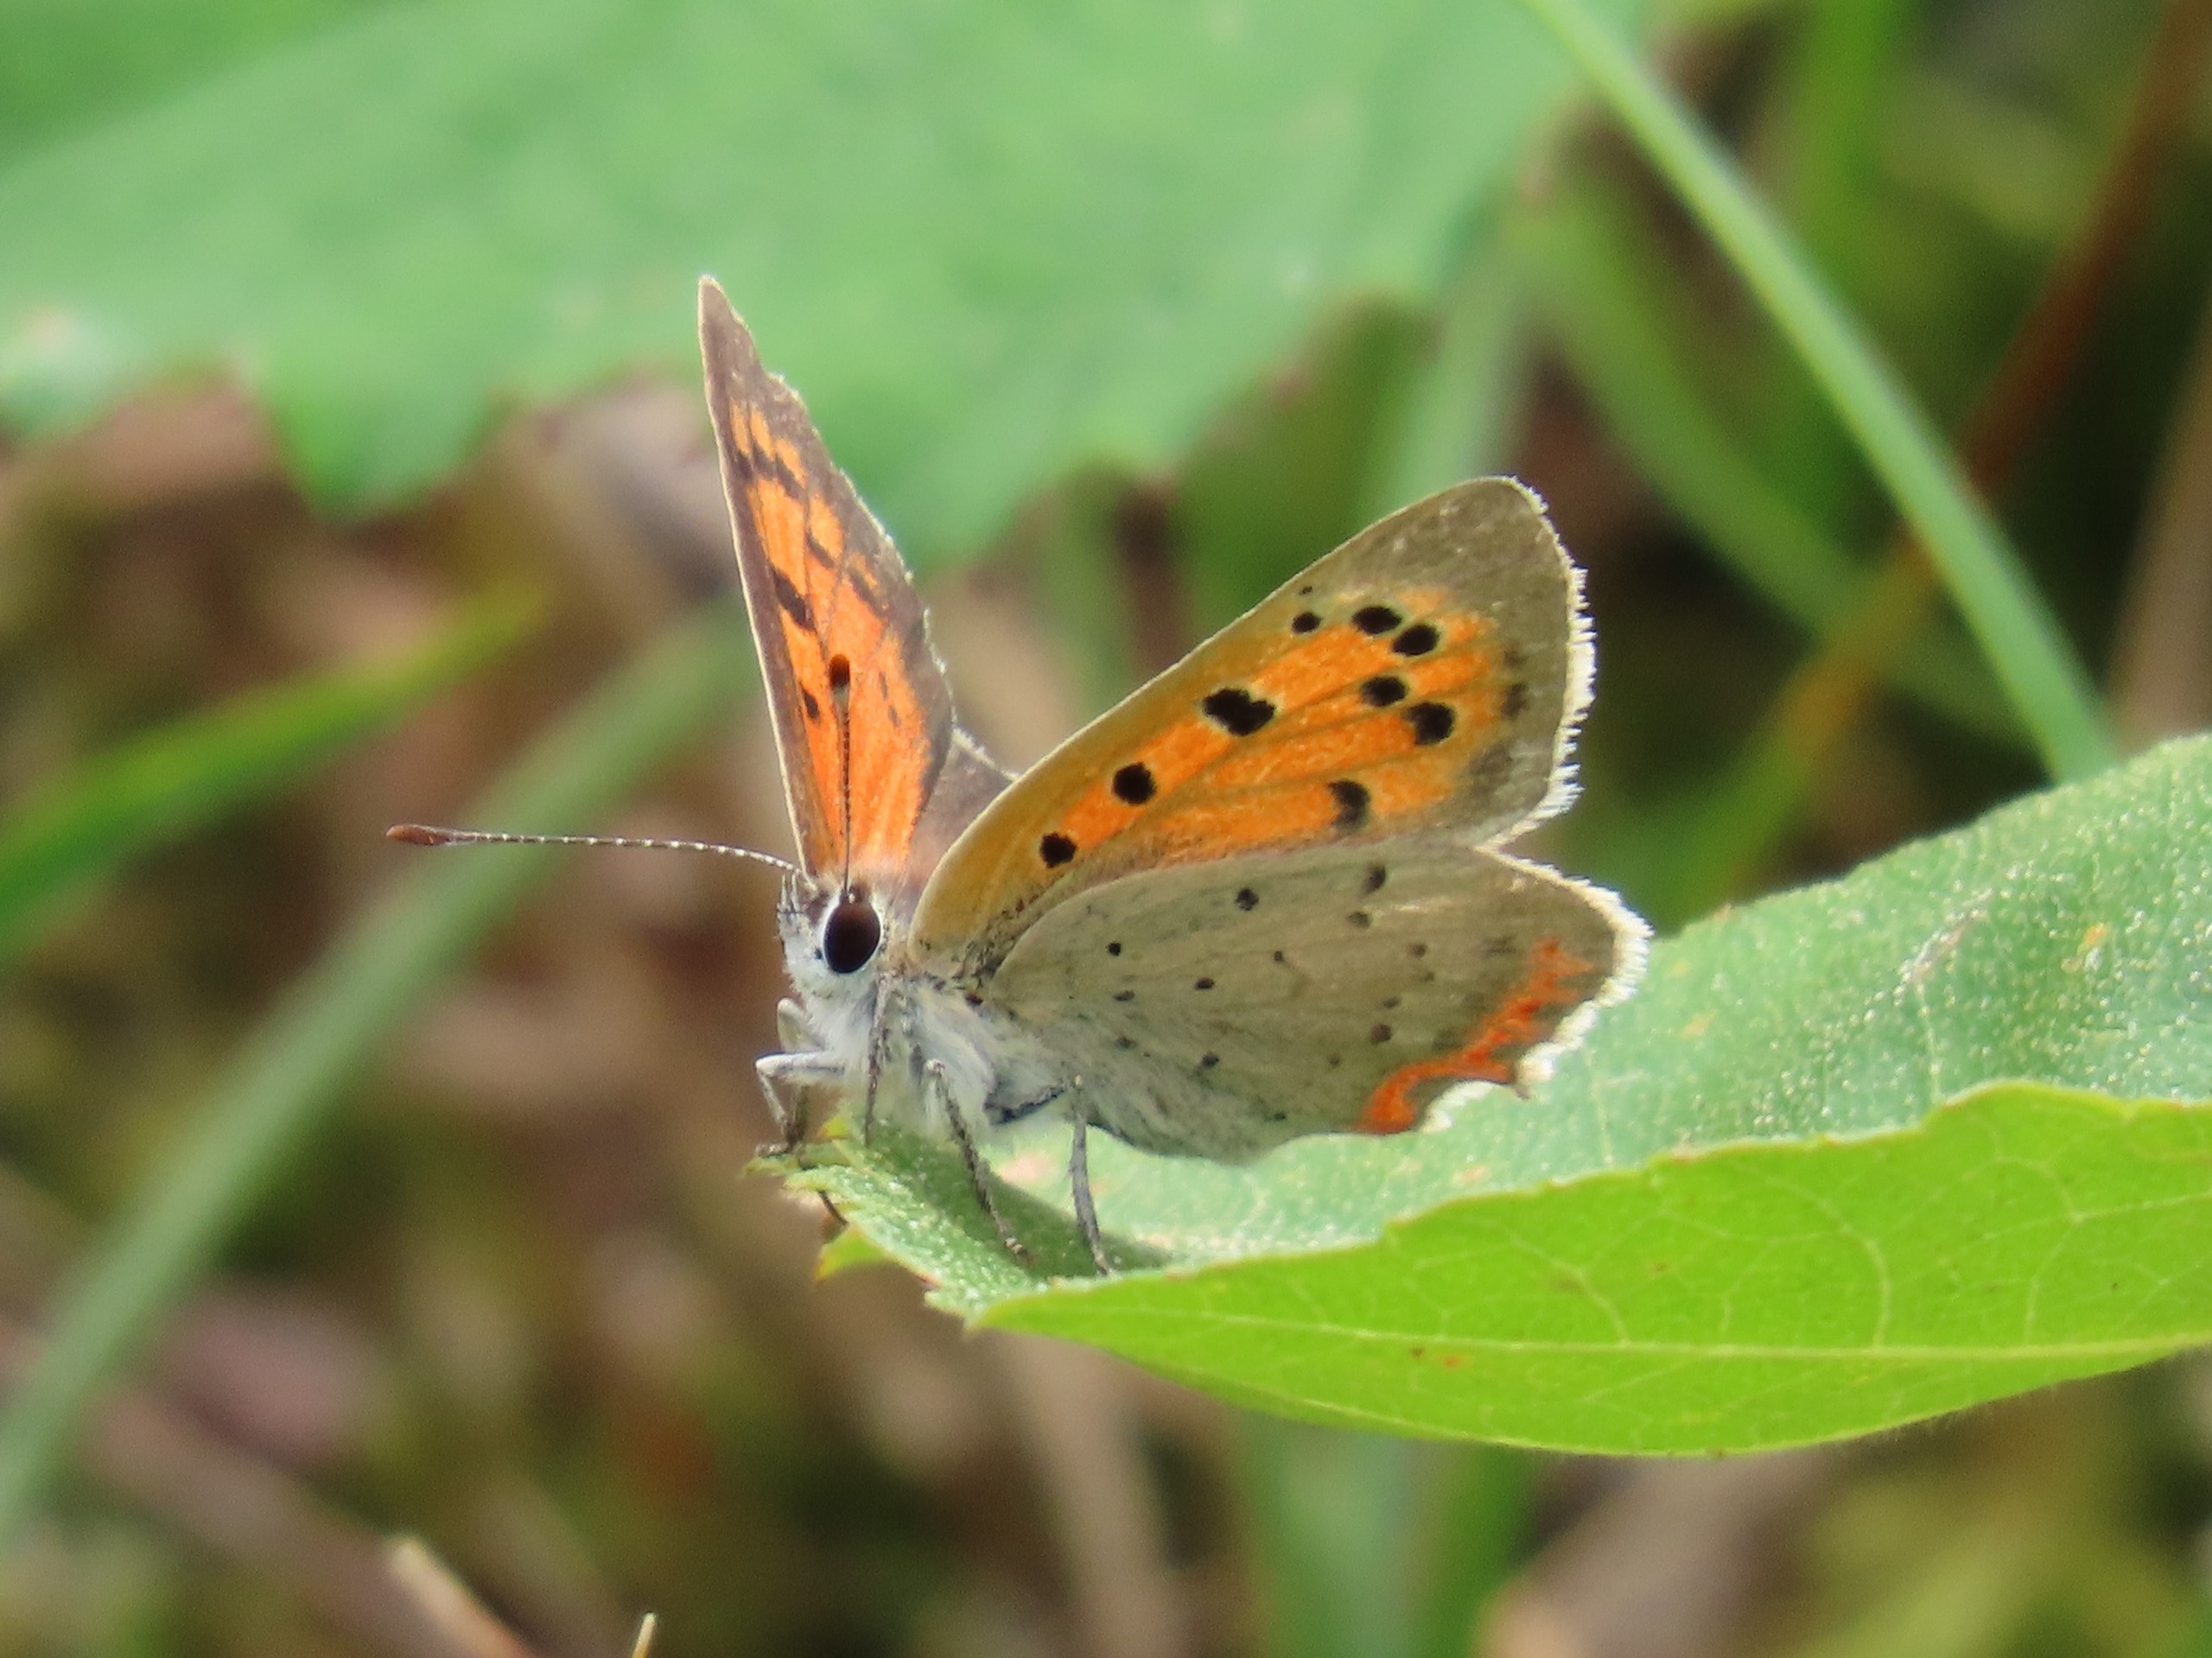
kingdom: Animalia
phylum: Arthropoda
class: Insecta
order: Lepidoptera
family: Lycaenidae
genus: Lycaena
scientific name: Lycaena phlaeas
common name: Lille ildfugl
